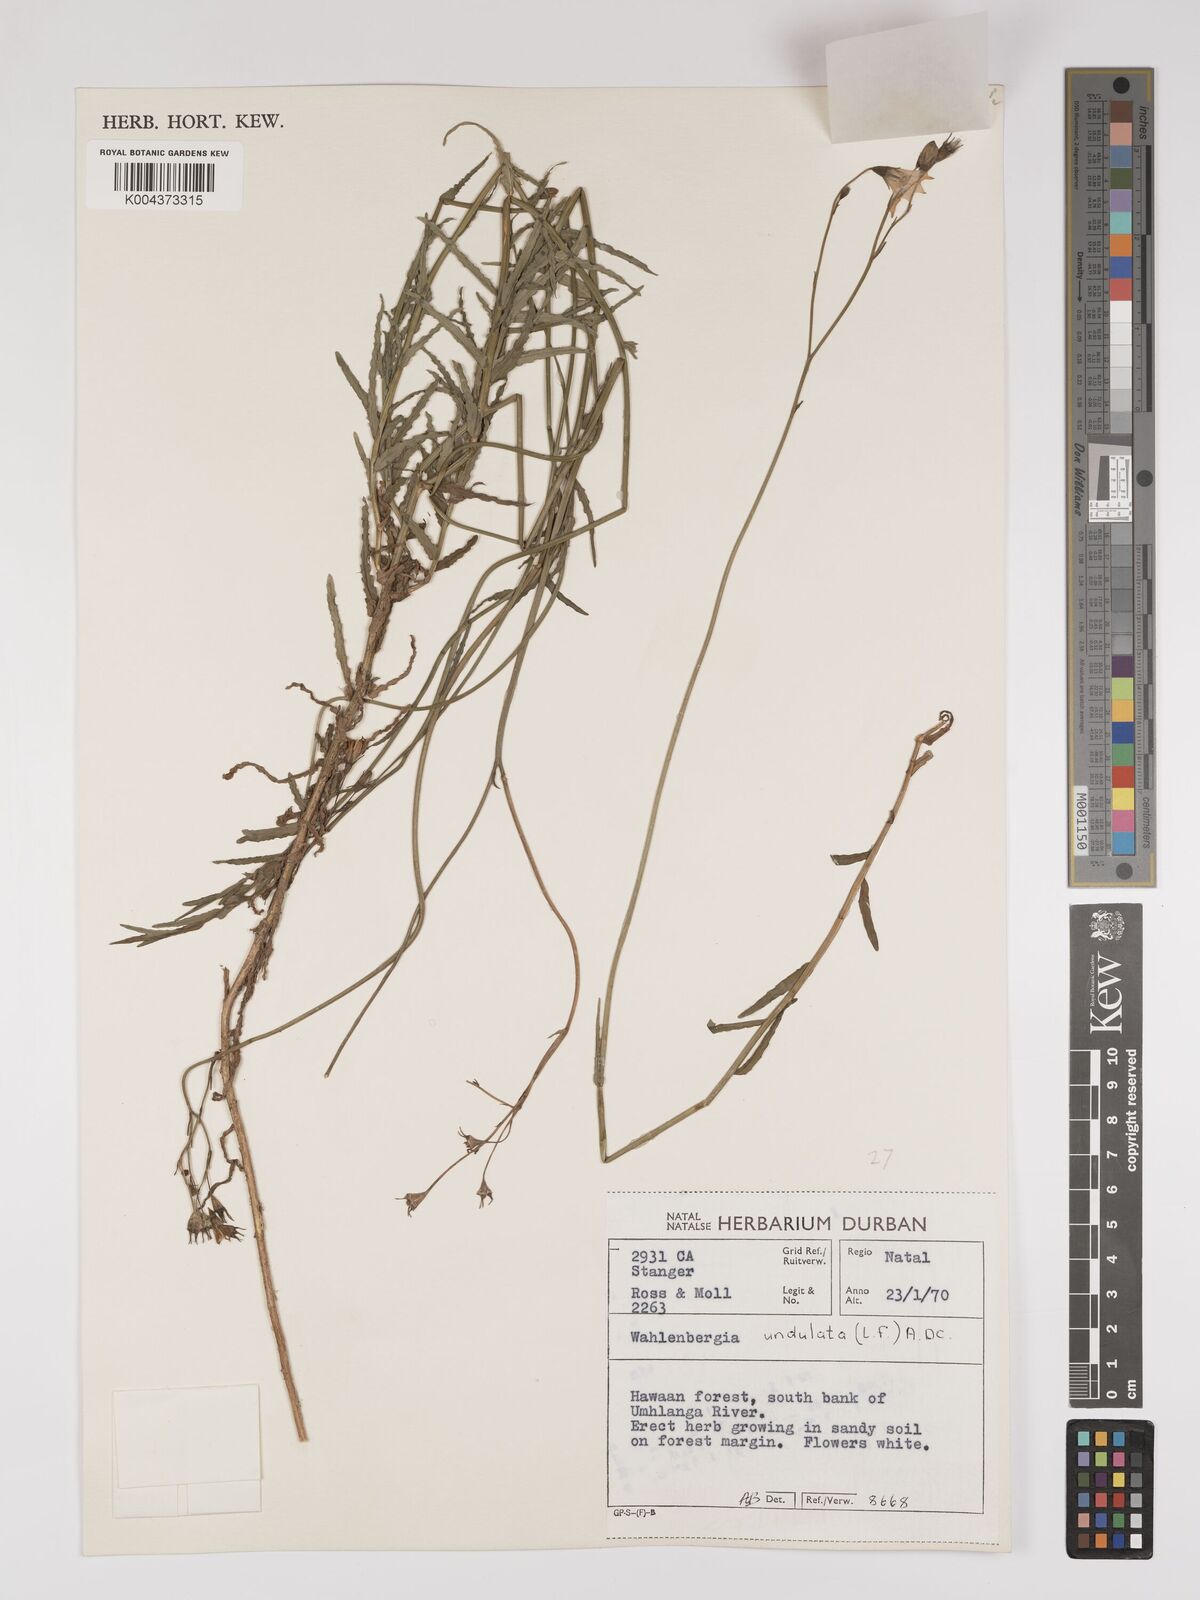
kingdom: Plantae
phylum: Tracheophyta
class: Magnoliopsida
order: Asterales
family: Campanulaceae
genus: Wahlenbergia
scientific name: Wahlenbergia undulata
